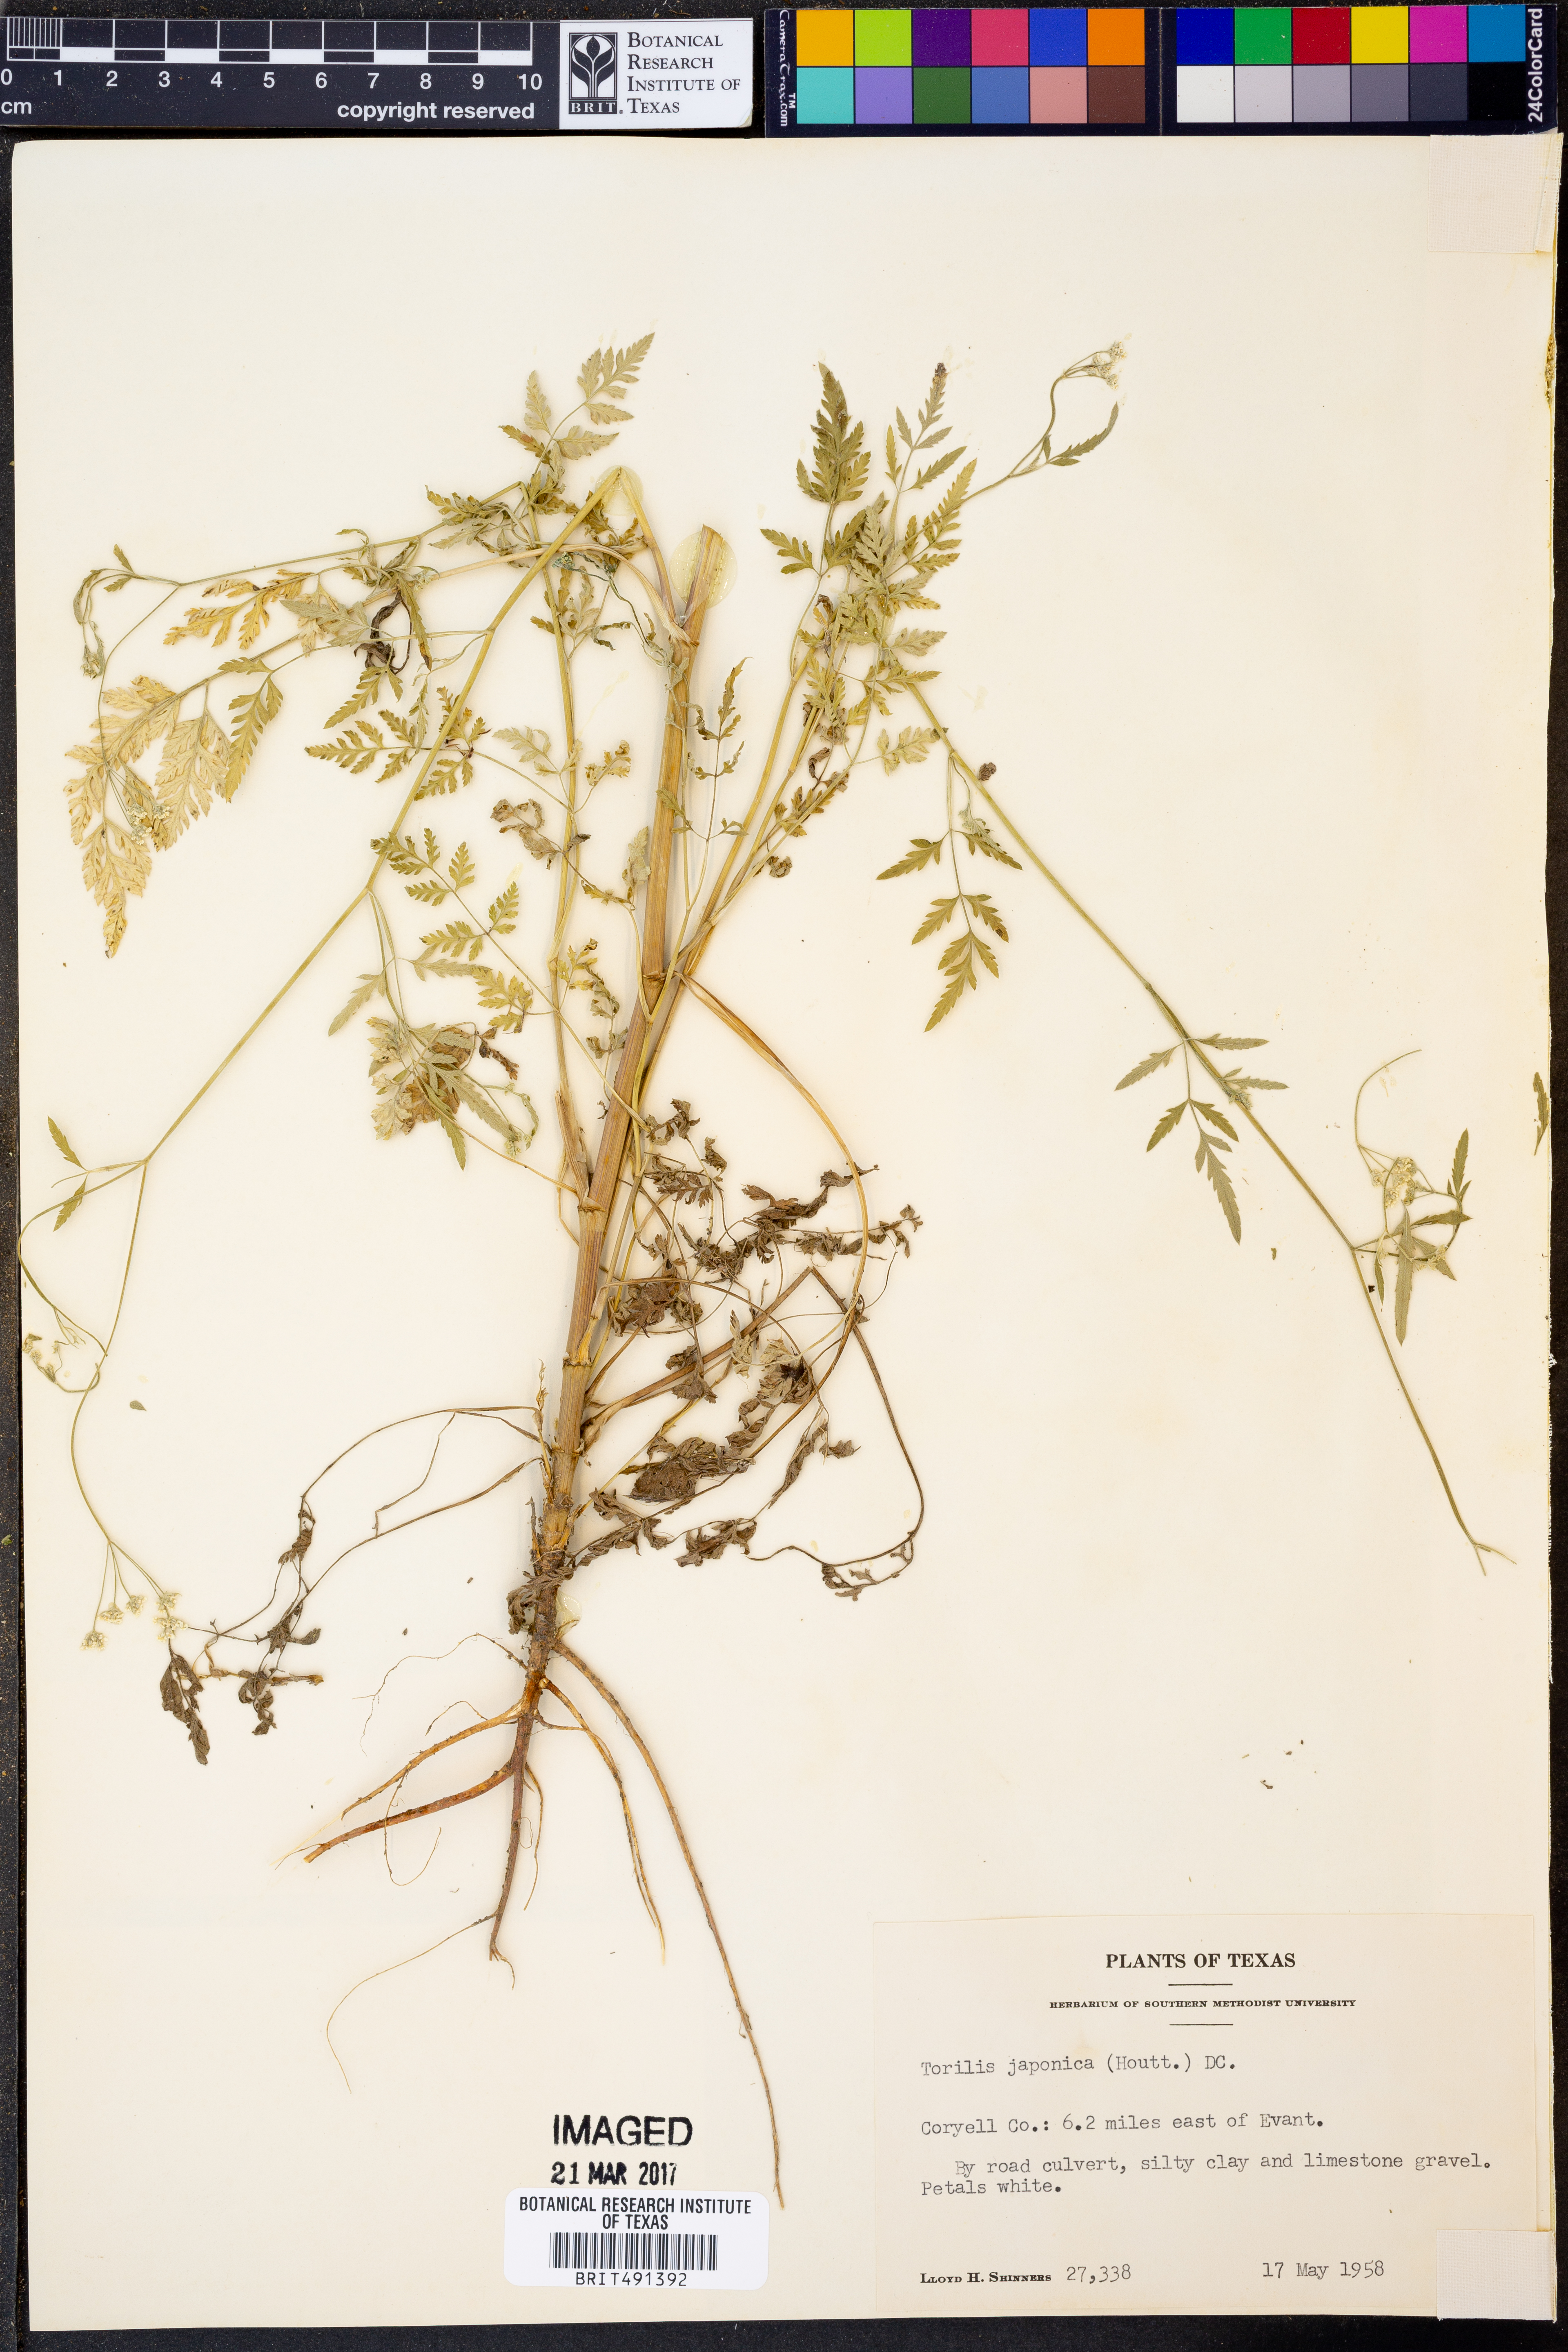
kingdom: Plantae
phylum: Tracheophyta
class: Magnoliopsida
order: Apiales
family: Apiaceae
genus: Torilis
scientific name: Torilis japonica
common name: Upright hedge-parsley
